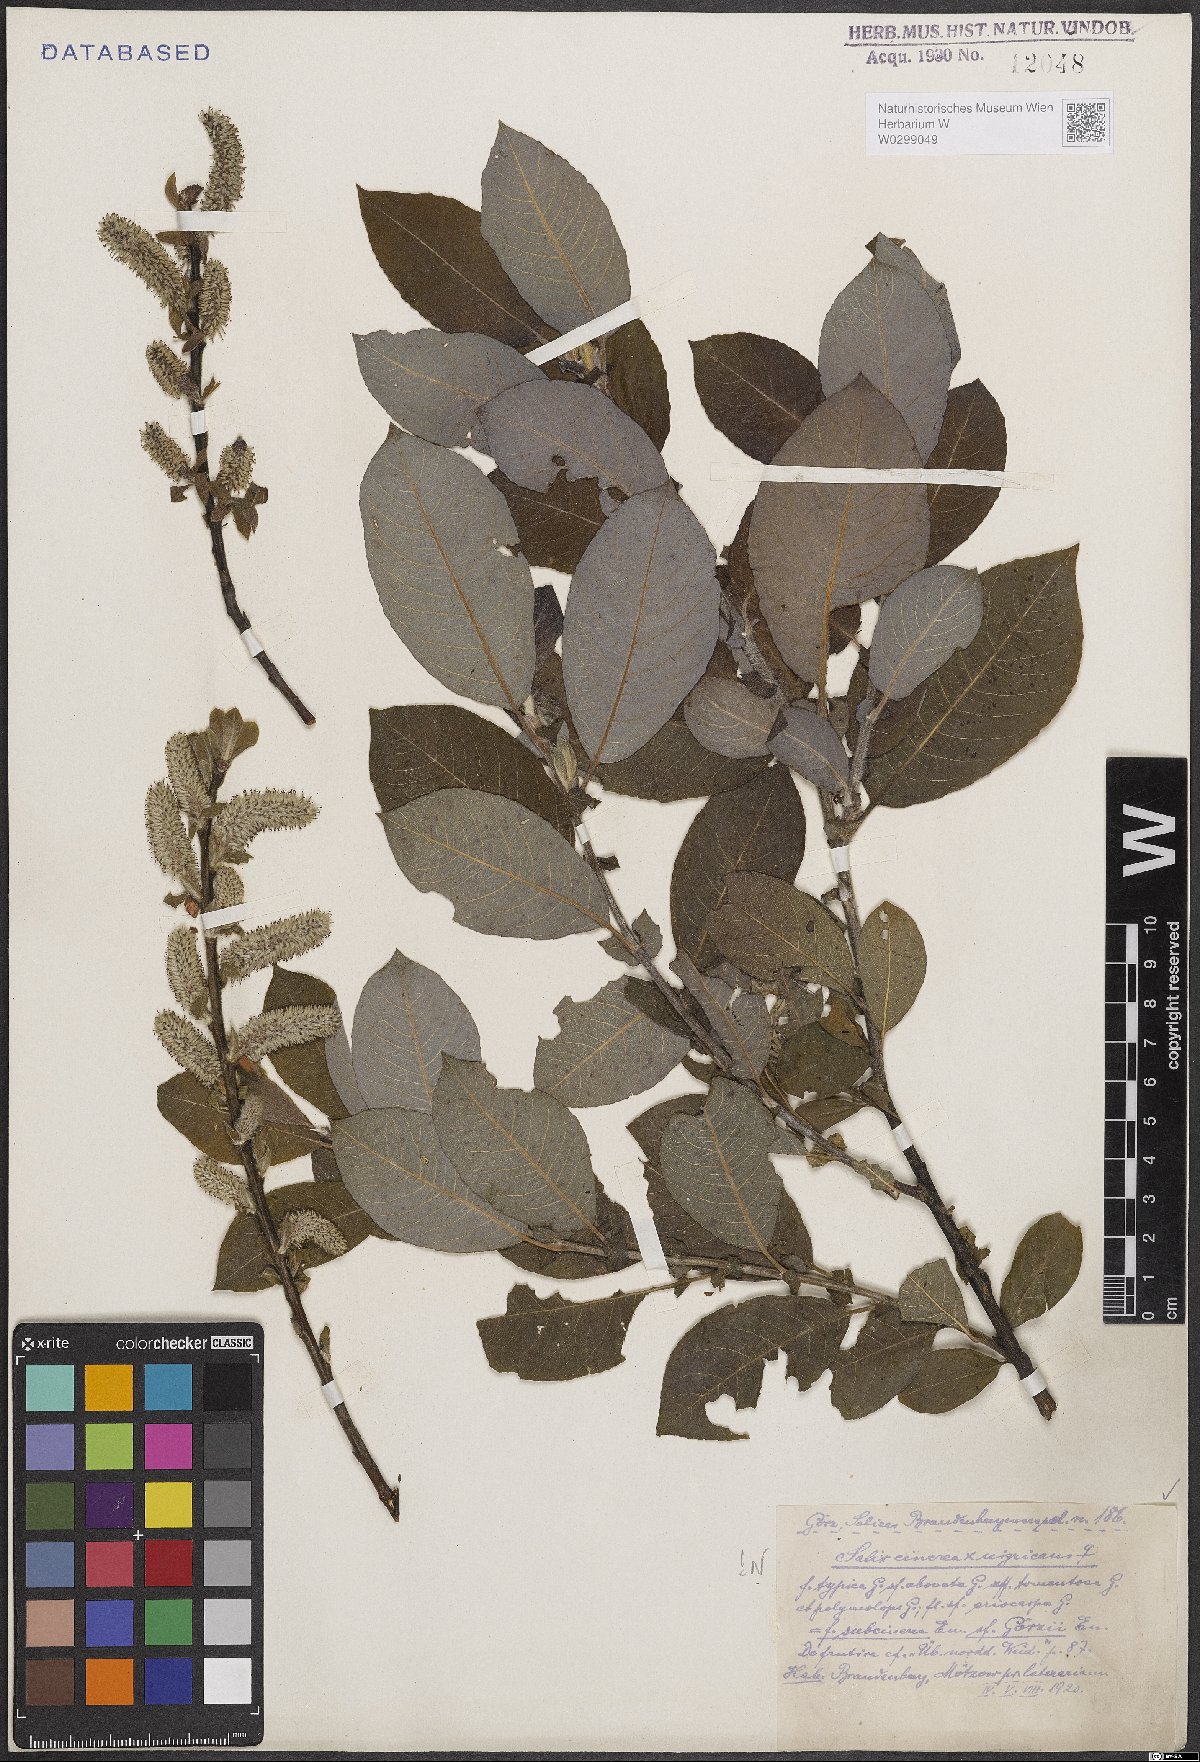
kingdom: Plantae
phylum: Tracheophyta
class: Magnoliopsida
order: Malpighiales
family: Salicaceae
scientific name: Salicaceae
